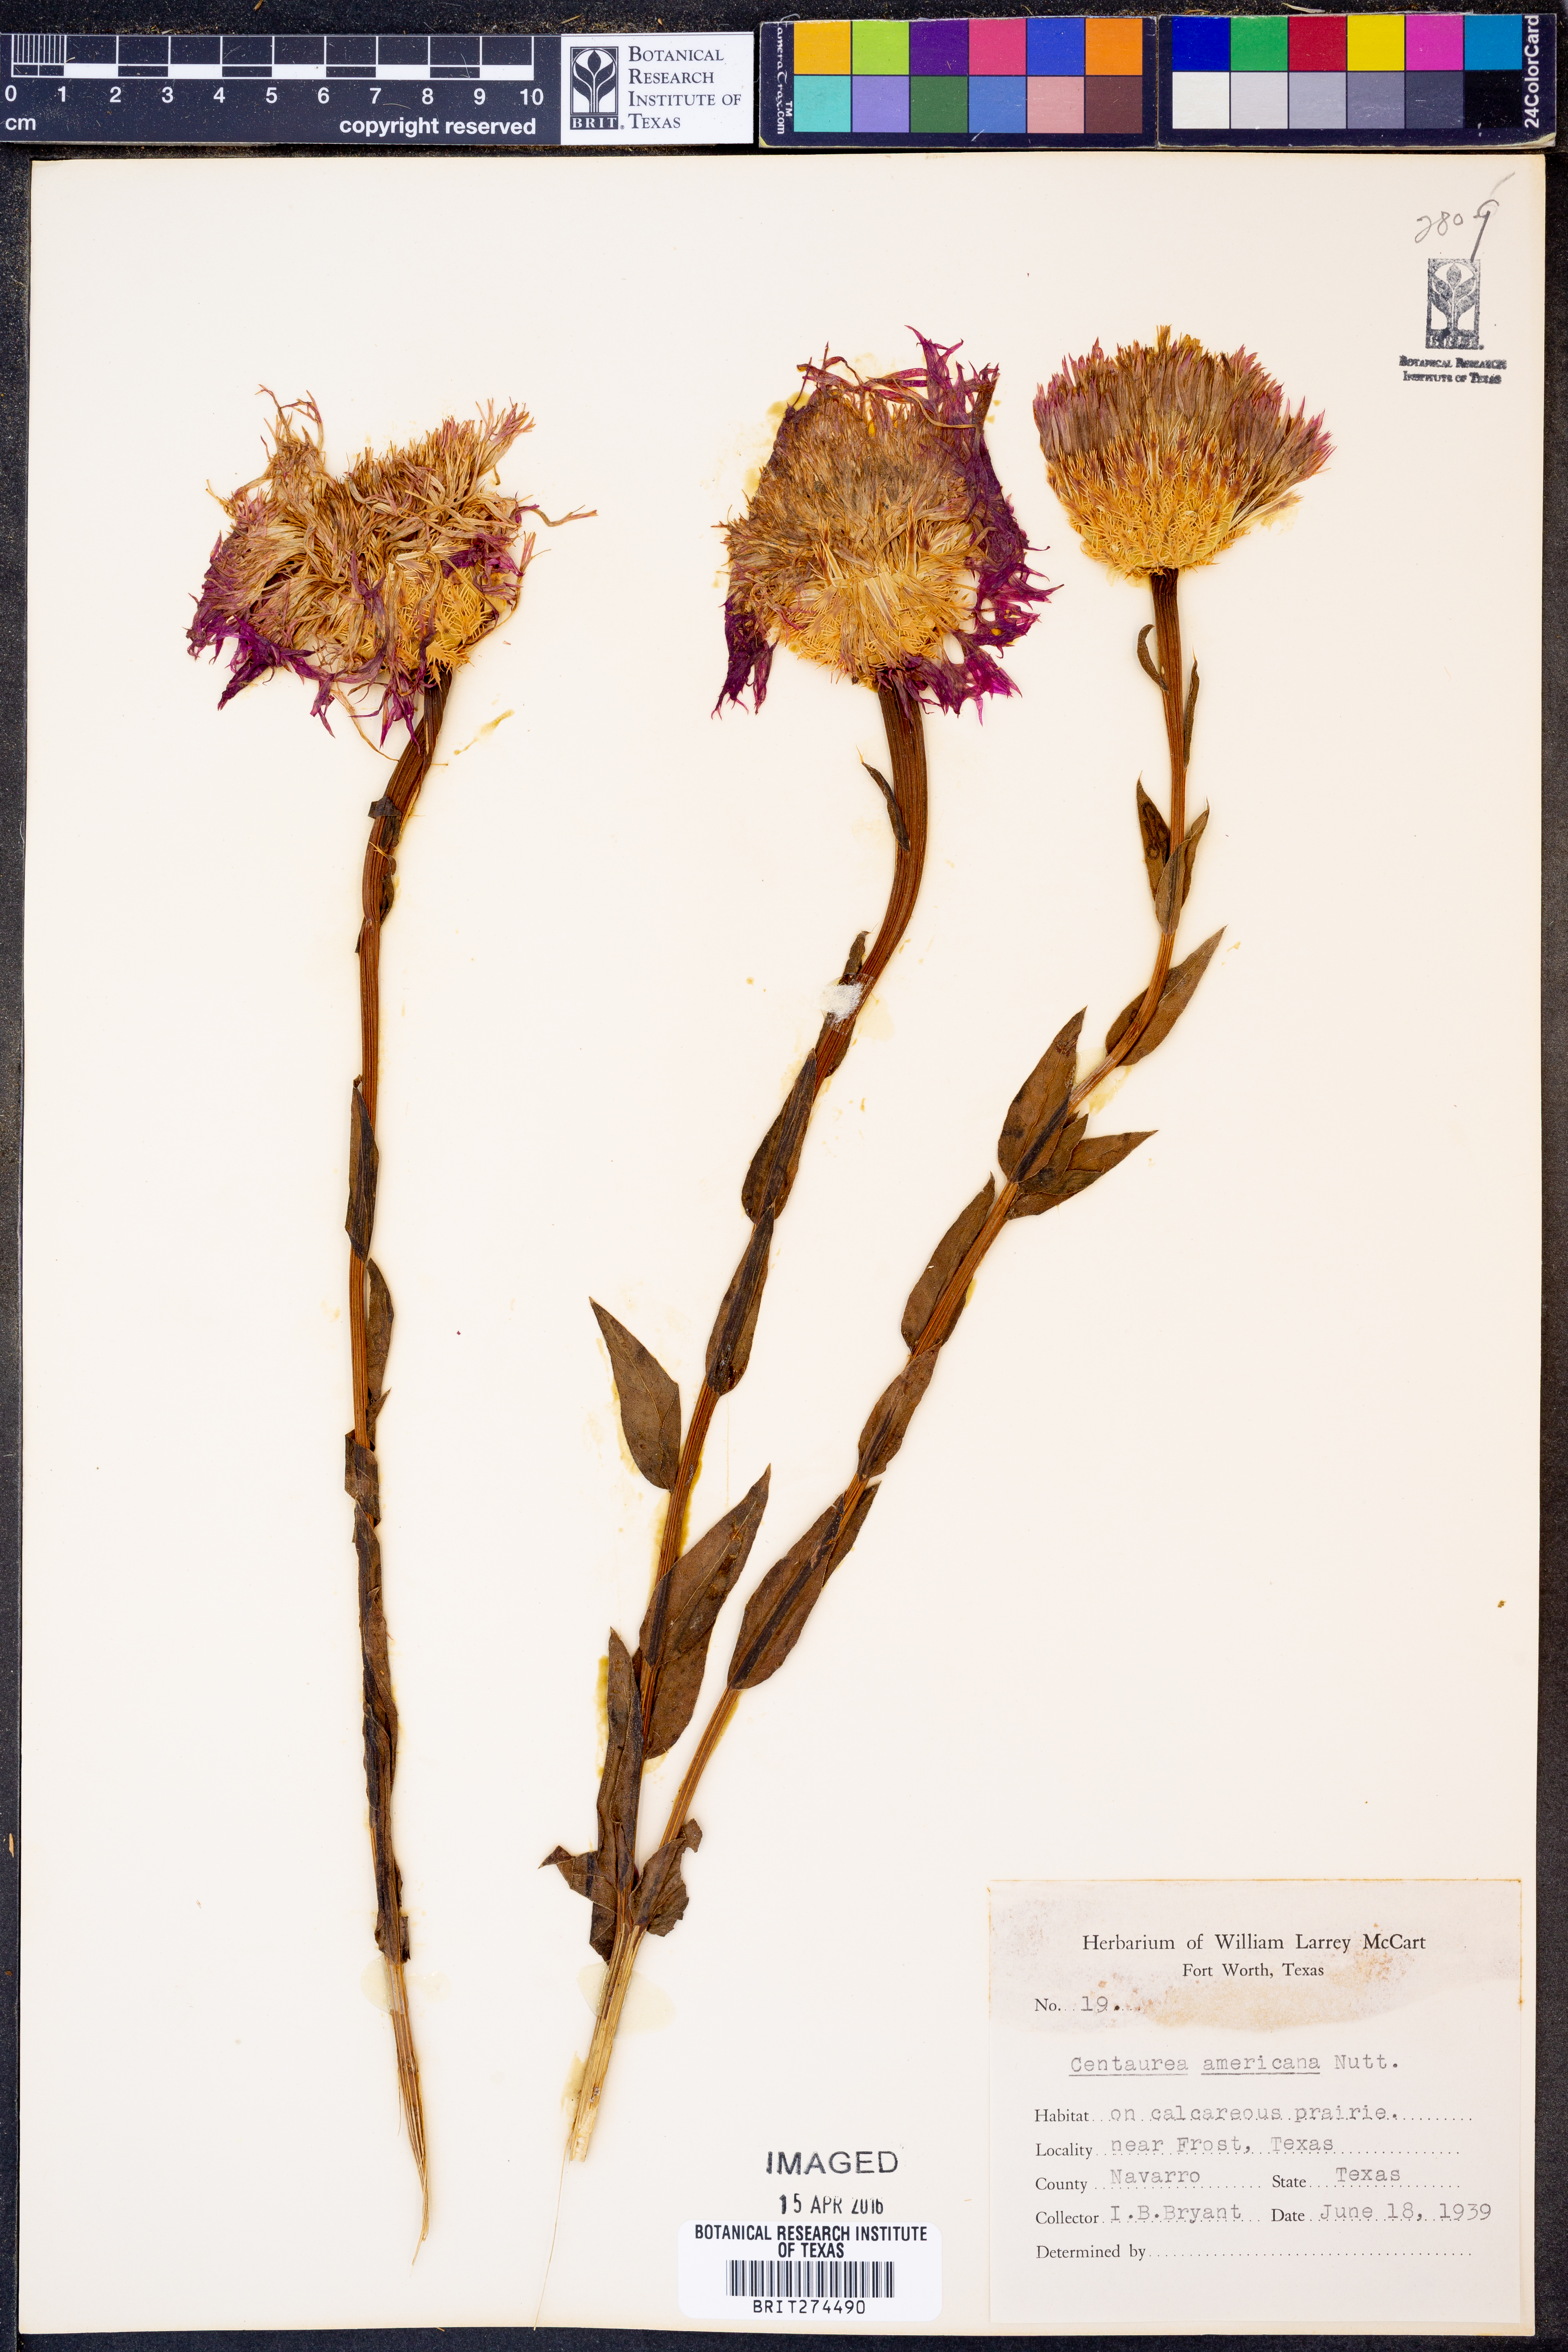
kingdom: Plantae
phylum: Tracheophyta
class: Magnoliopsida
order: Asterales
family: Asteraceae
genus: Plectocephalus
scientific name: Plectocephalus americanus
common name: American basket-flower
